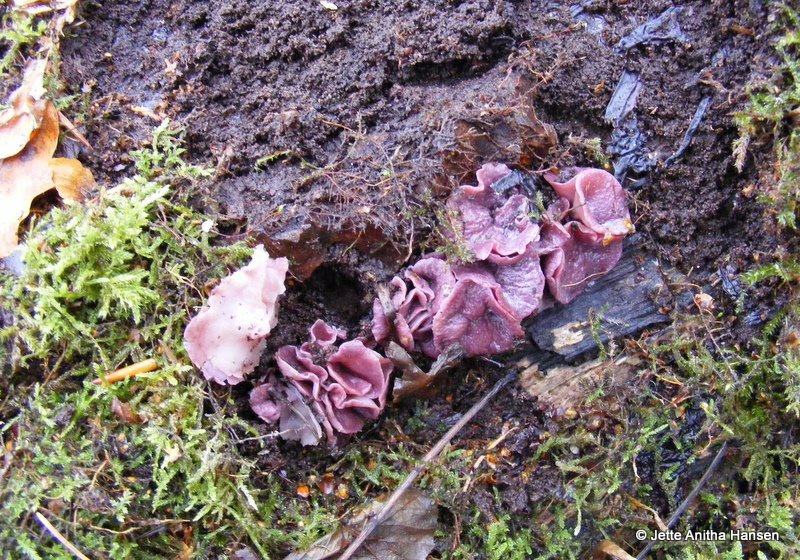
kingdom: Fungi
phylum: Ascomycota
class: Leotiomycetes
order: Helotiales
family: Gelatinodiscaceae
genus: Ascocoryne
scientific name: Ascocoryne cylichnium
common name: stor sejskive
